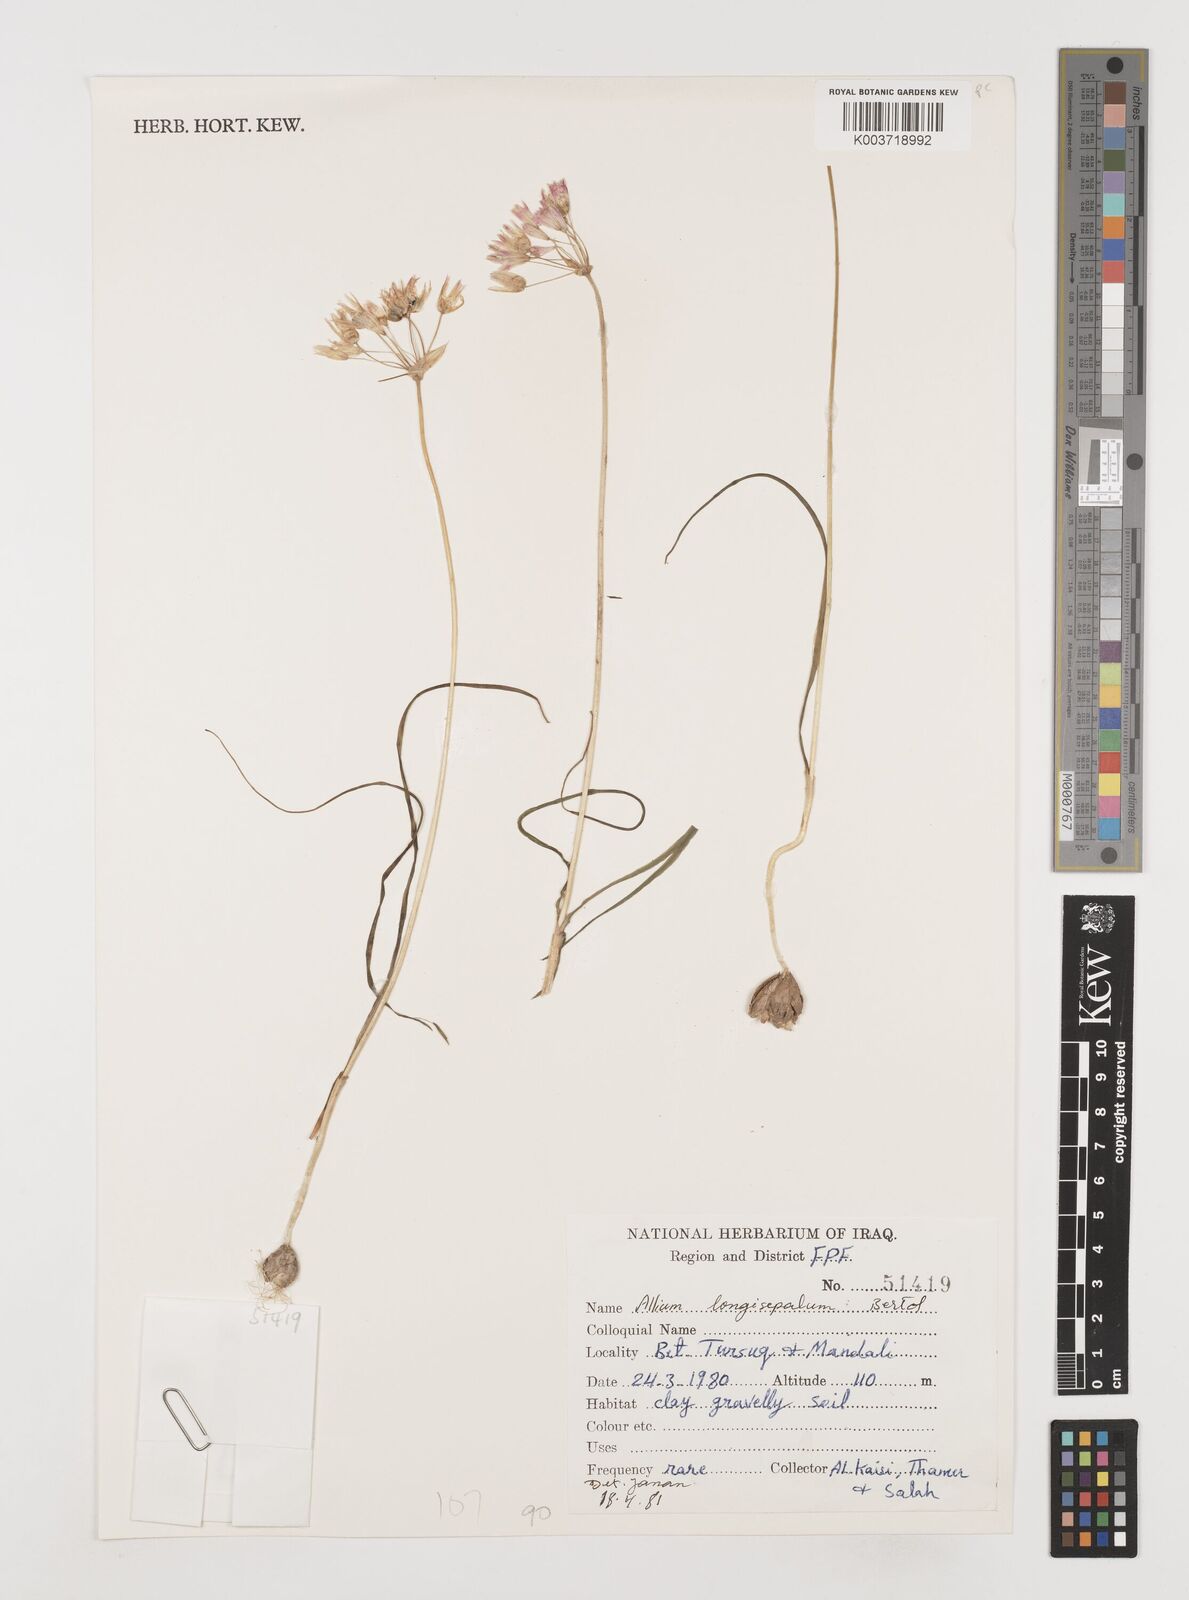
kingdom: Plantae
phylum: Tracheophyta
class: Liliopsida
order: Asparagales
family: Amaryllidaceae
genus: Allium
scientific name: Allium longisepalum
